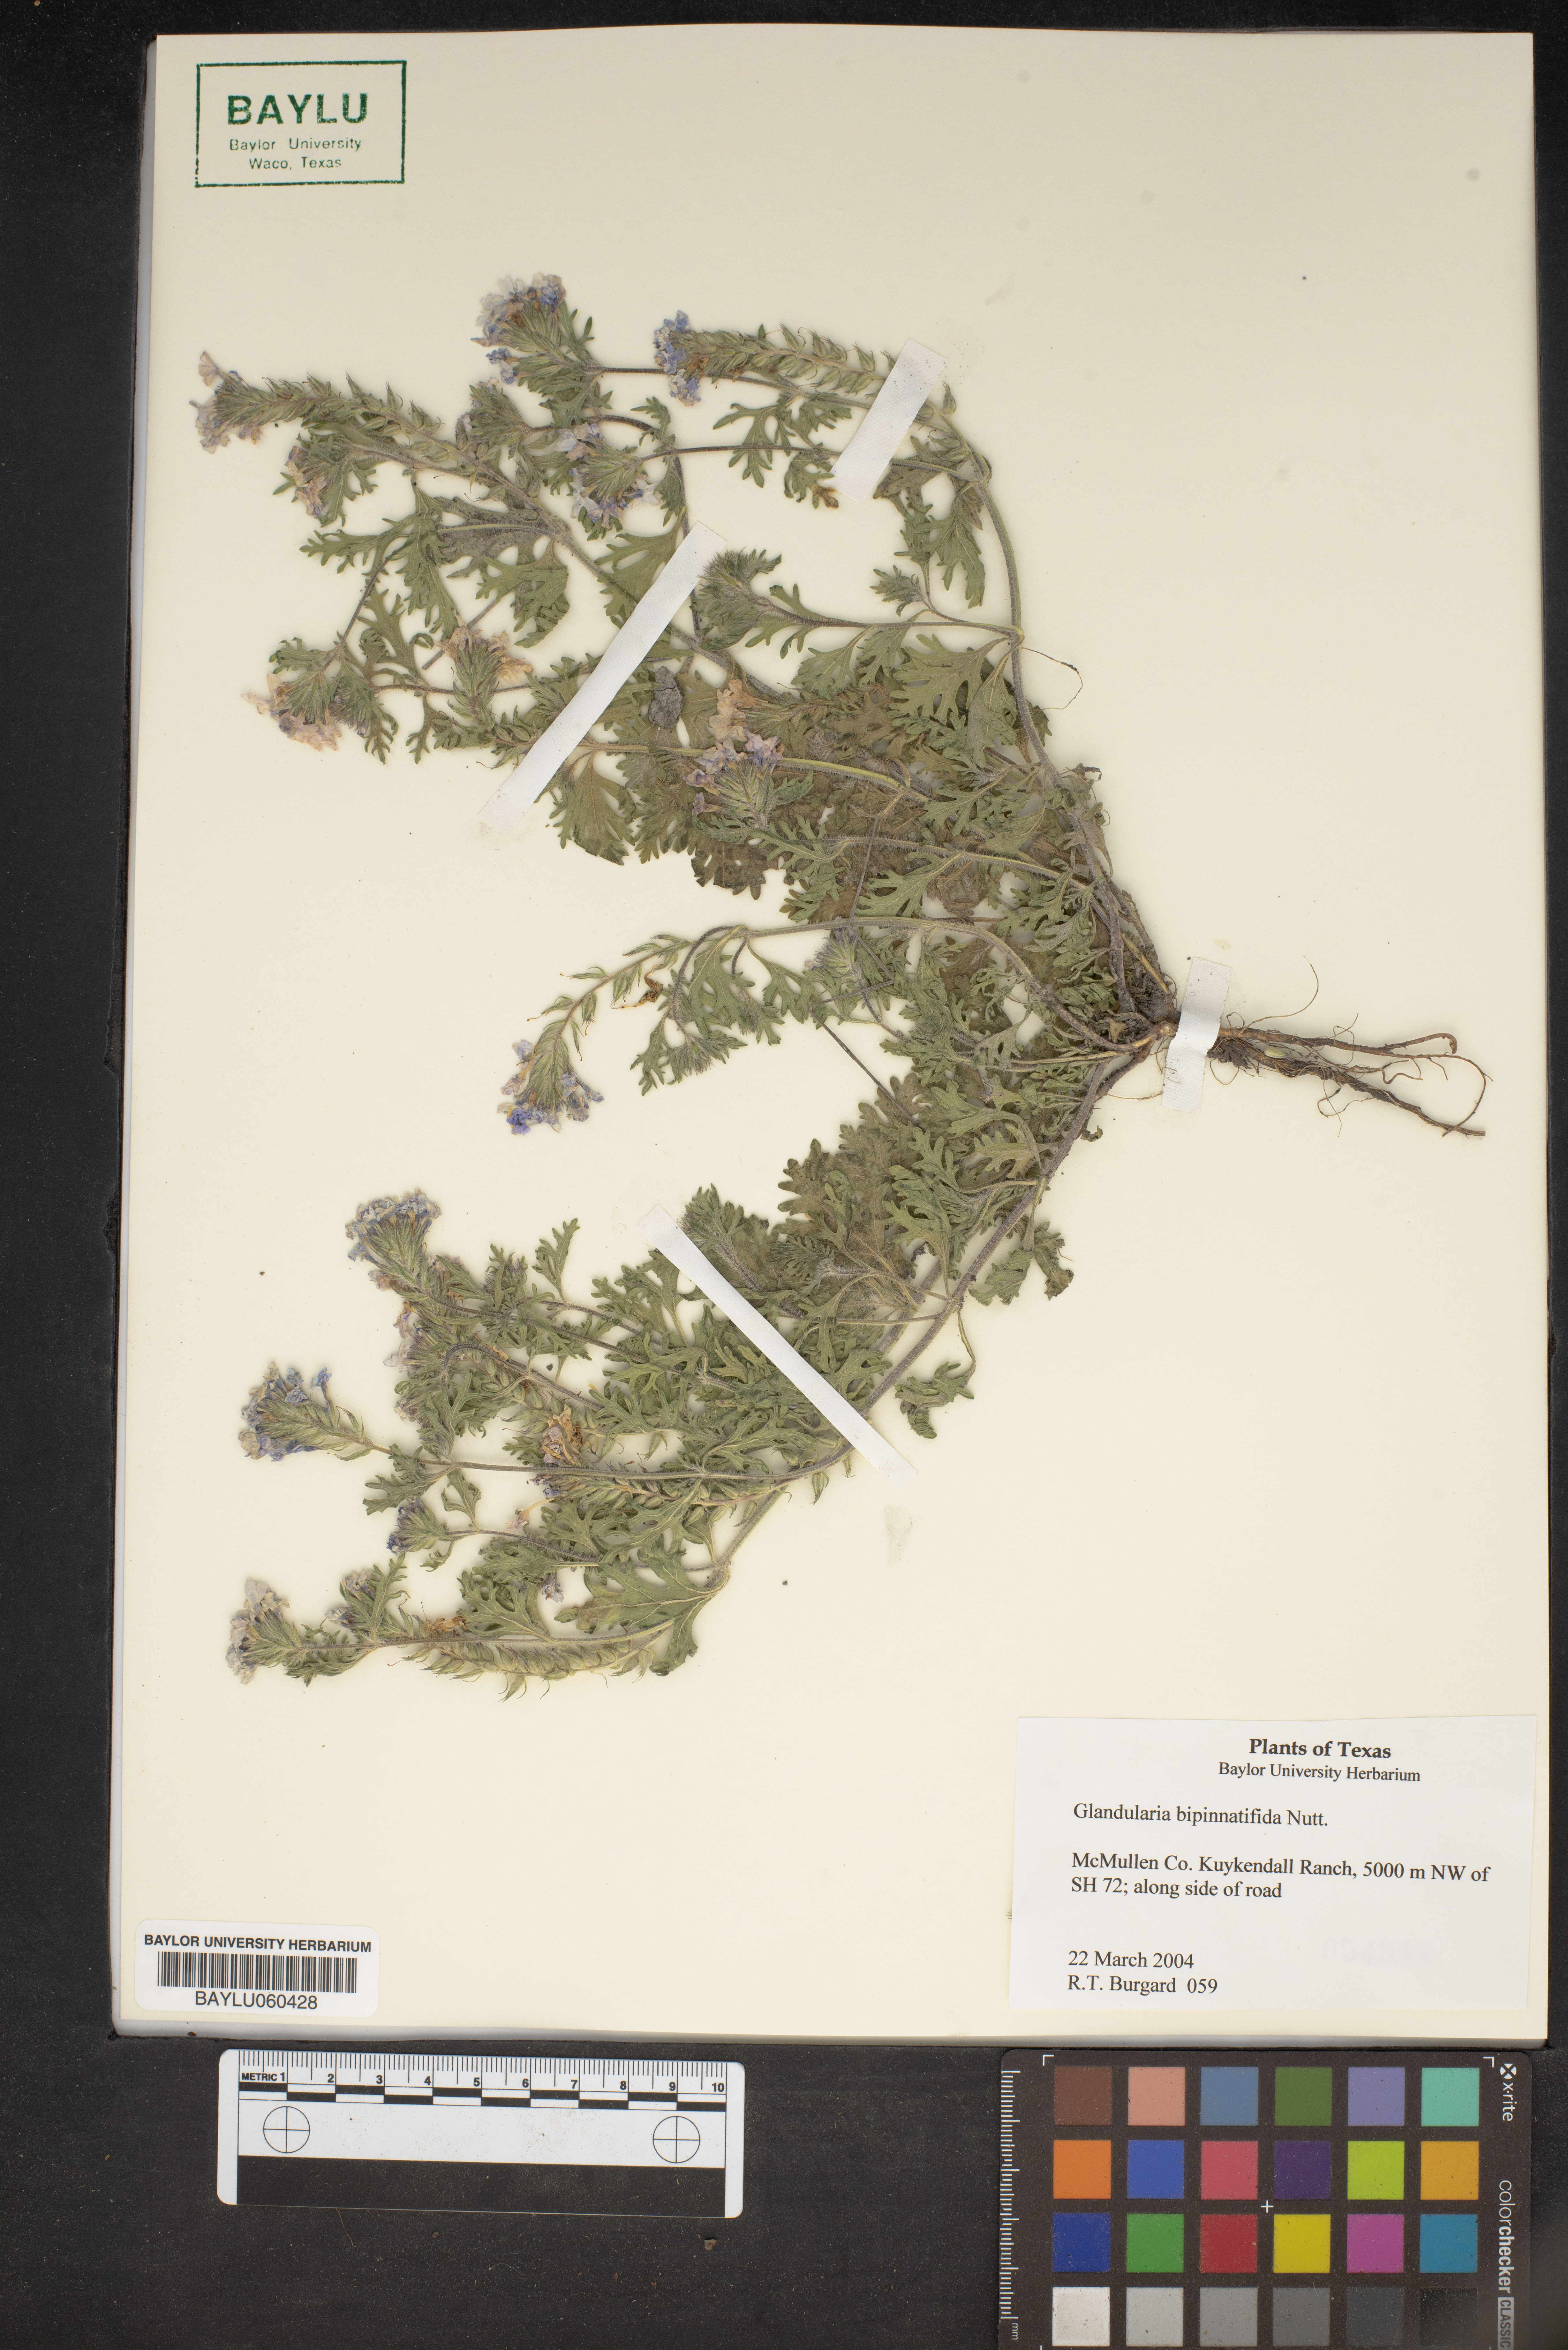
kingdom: Plantae
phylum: Tracheophyta
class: Magnoliopsida
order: Lamiales
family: Verbenaceae
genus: Verbena
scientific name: Verbena bipinnatifida
